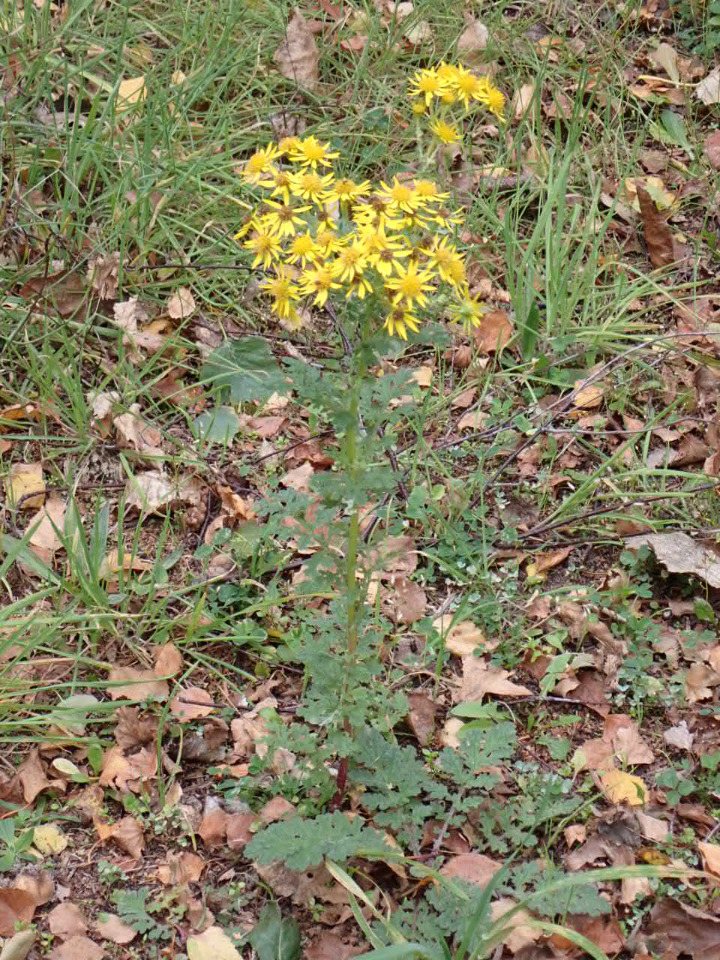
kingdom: Plantae
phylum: Tracheophyta
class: Magnoliopsida
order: Asterales
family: Asteraceae
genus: Jacobaea
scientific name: Jacobaea vulgaris
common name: Eng-brandbæger
